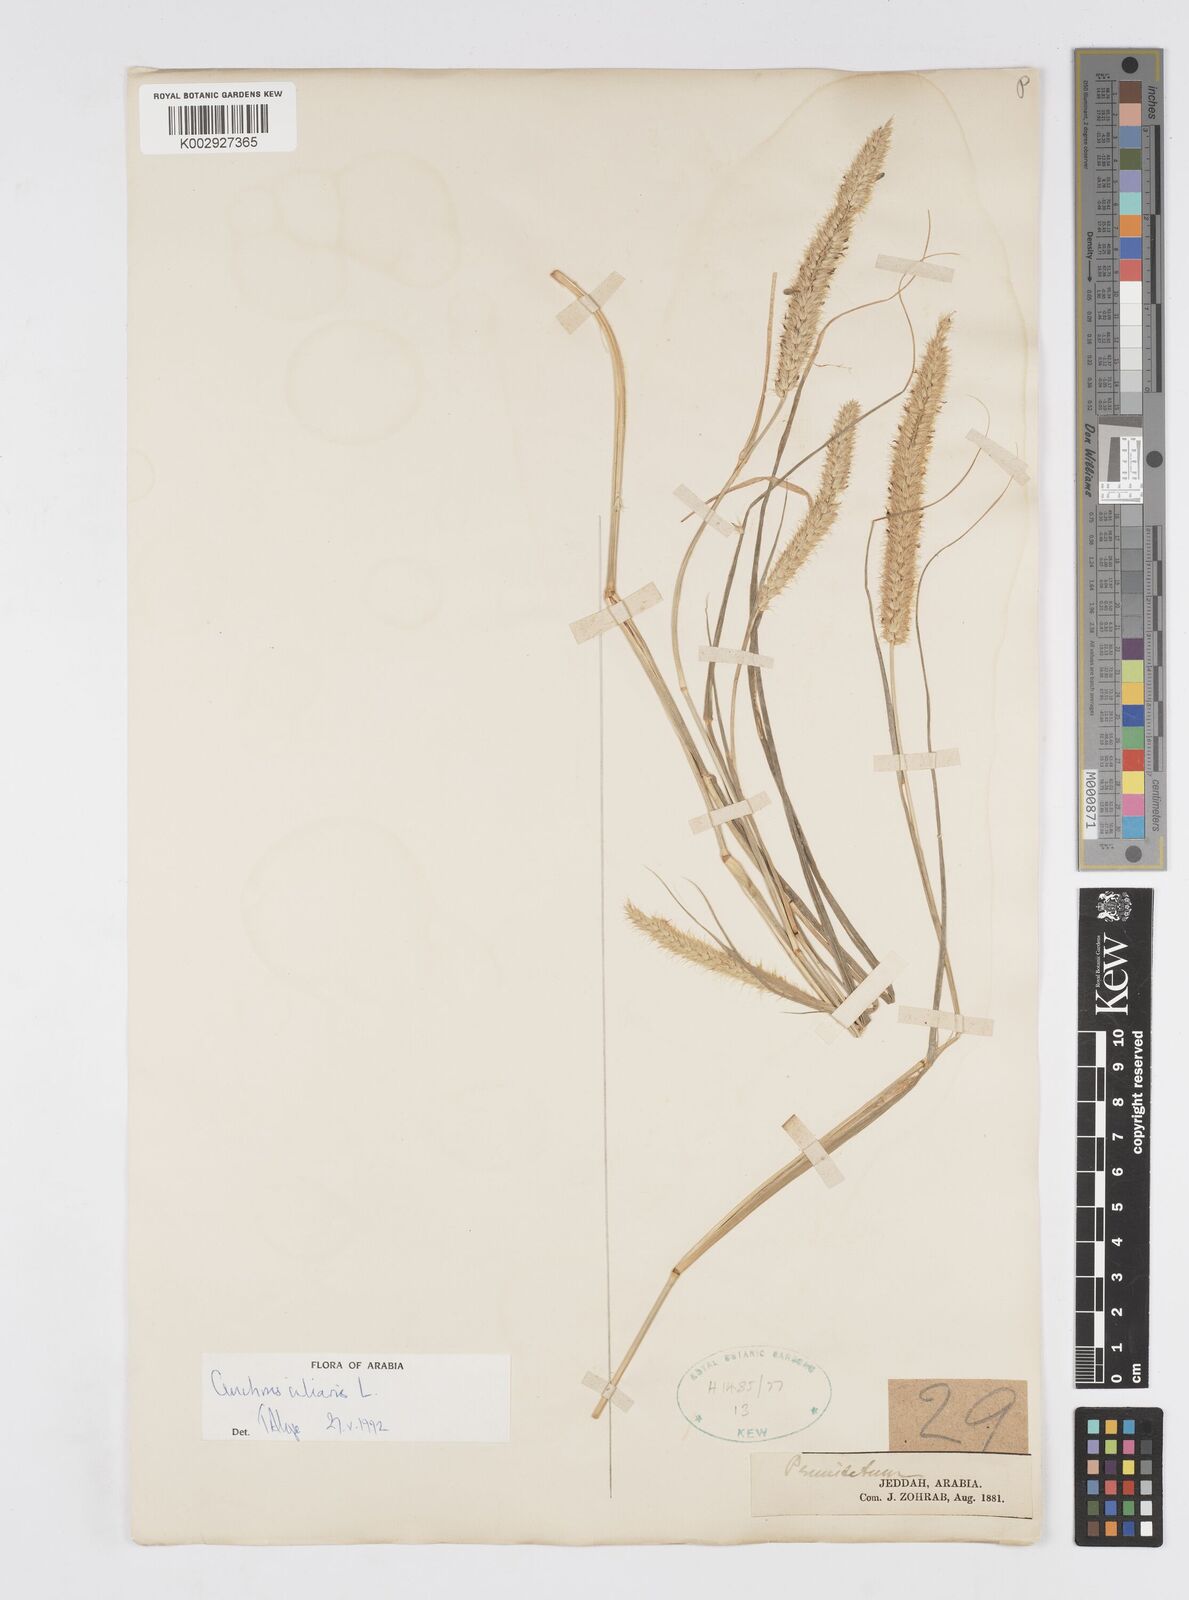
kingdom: Plantae
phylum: Tracheophyta
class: Liliopsida
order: Poales
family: Poaceae
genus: Cenchrus
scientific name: Cenchrus ciliaris
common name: Buffelgrass
